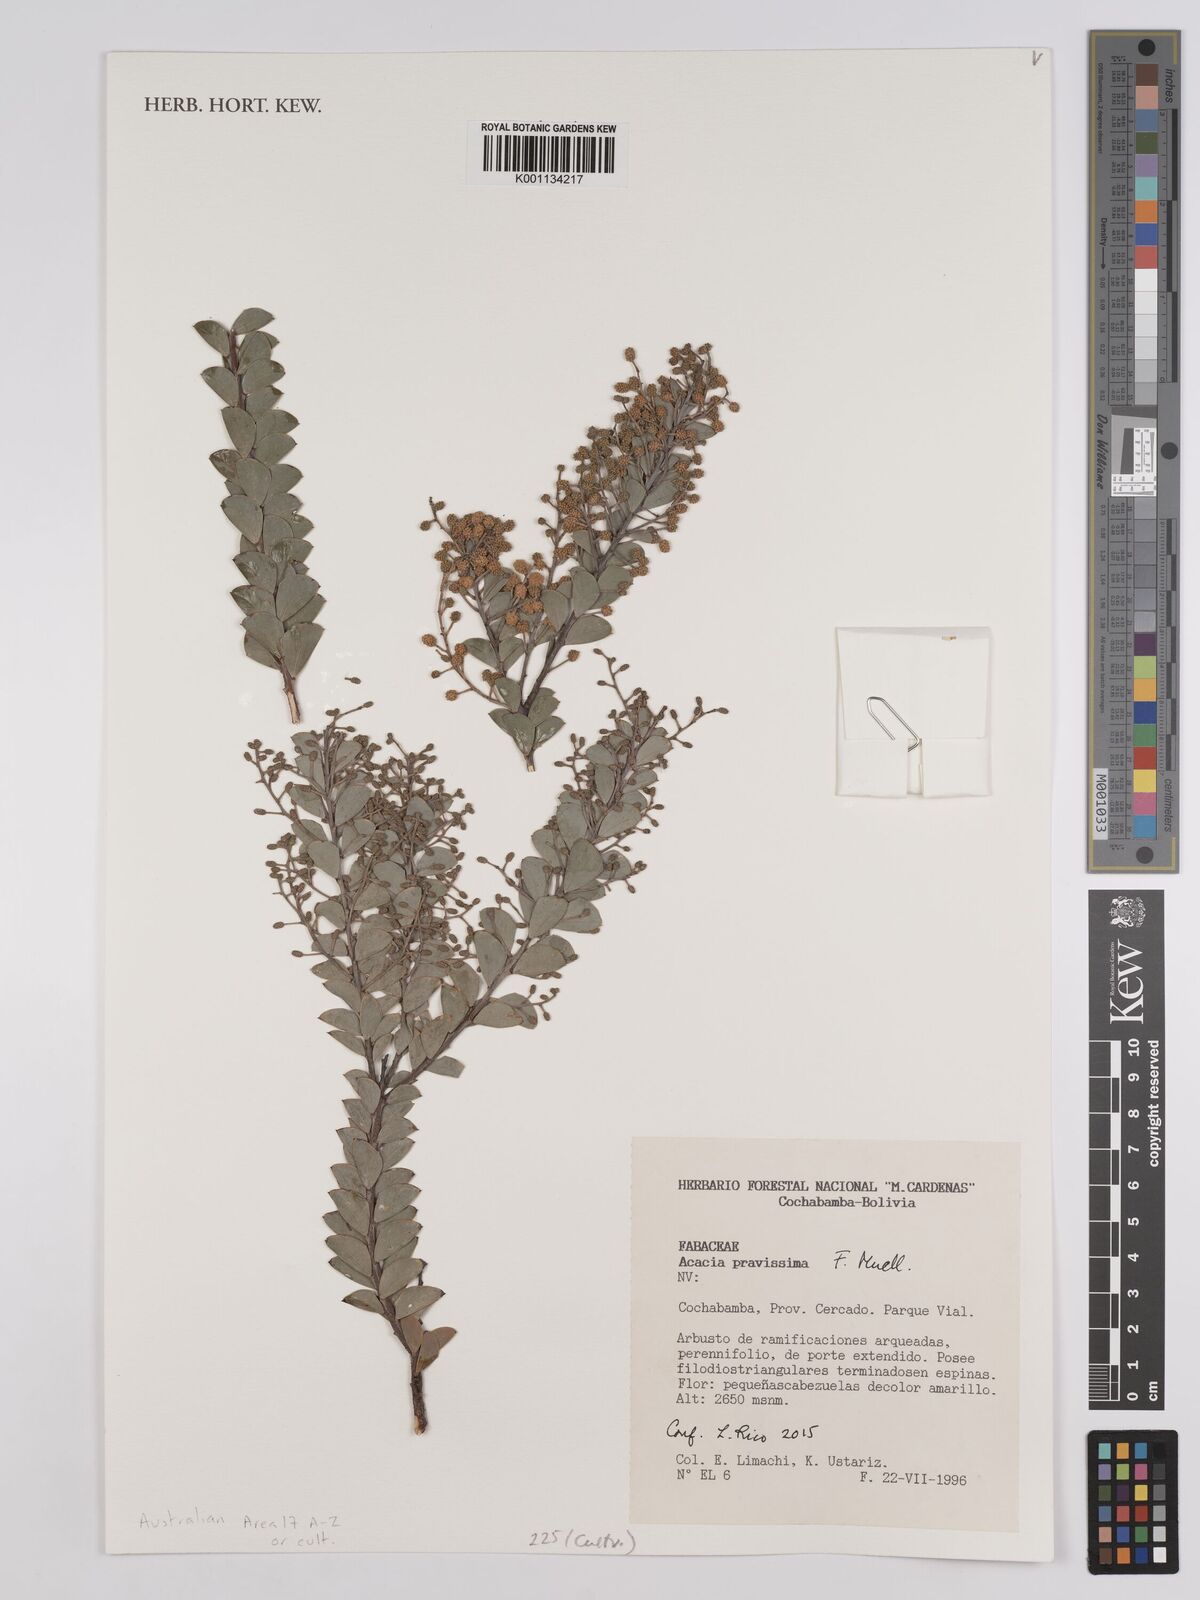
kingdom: Plantae
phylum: Tracheophyta
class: Magnoliopsida
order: Fabales
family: Fabaceae
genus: Acacia
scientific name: Acacia pravissima
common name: Tumut wattle
